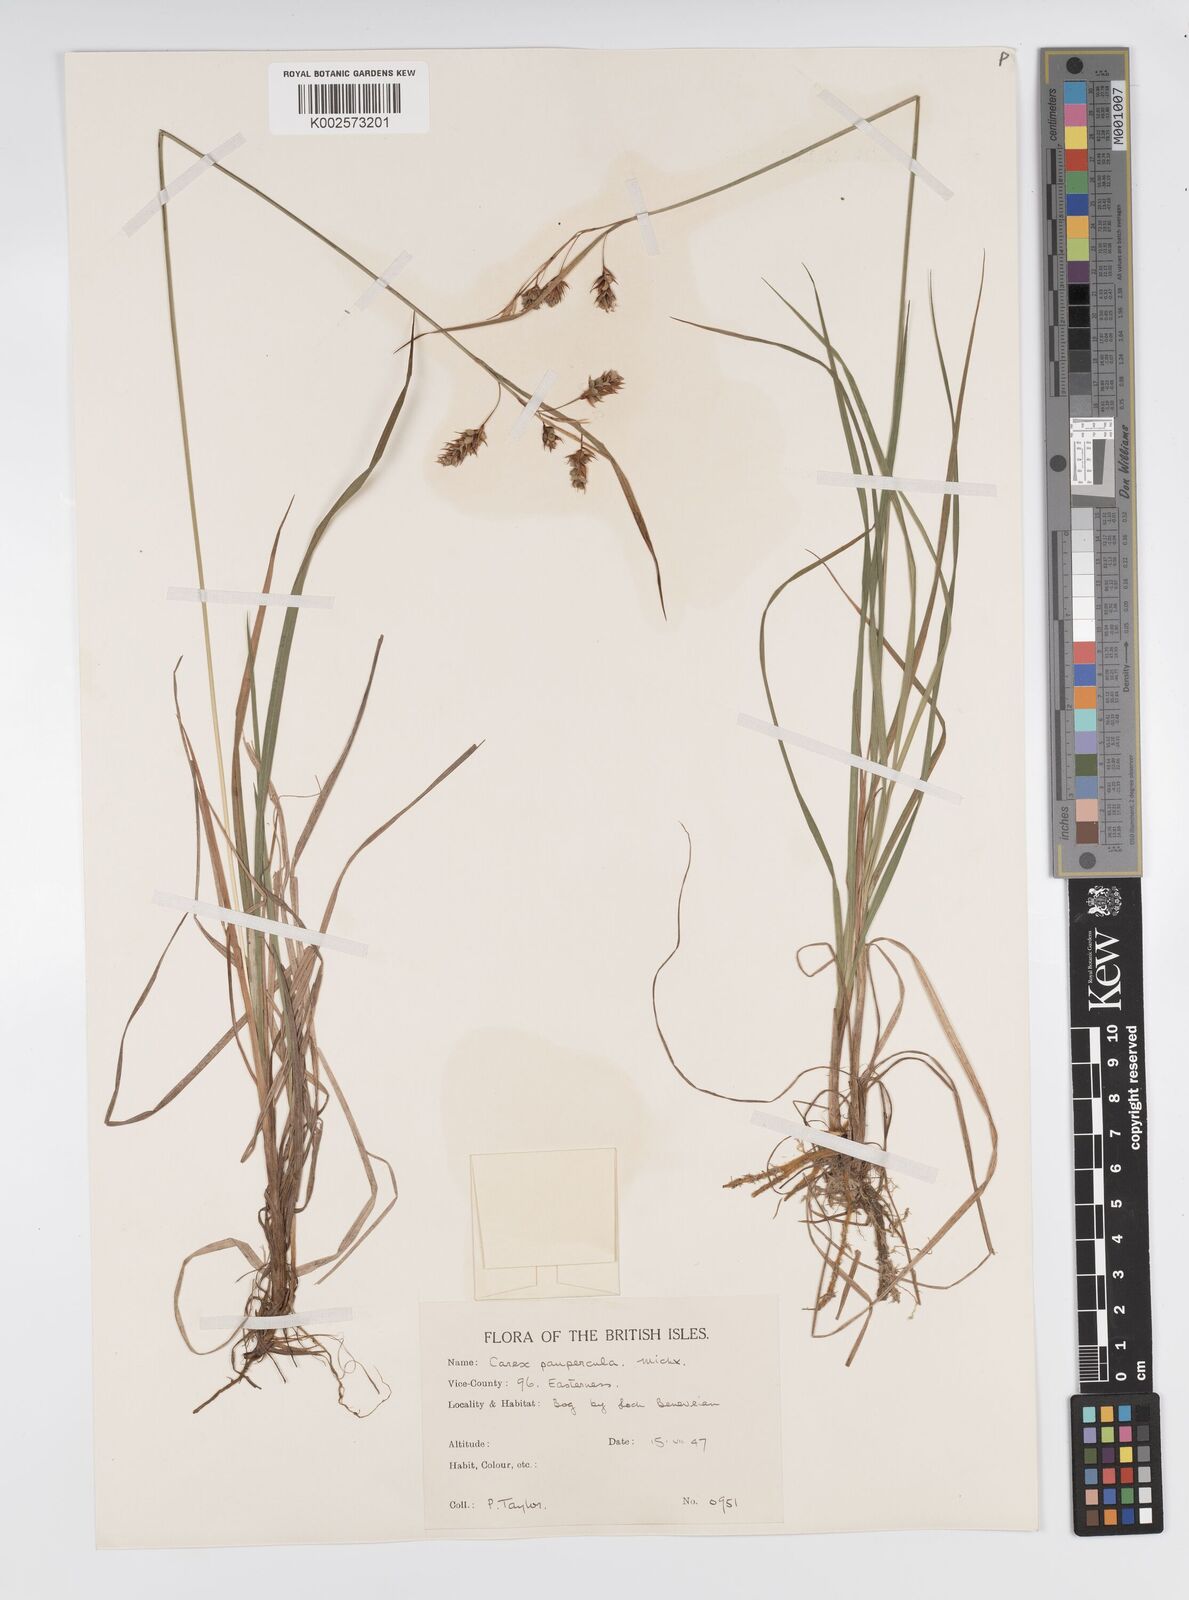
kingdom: Plantae
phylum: Tracheophyta
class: Liliopsida
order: Poales
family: Cyperaceae
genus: Carex
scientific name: Carex magellanica
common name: Bog sedge
